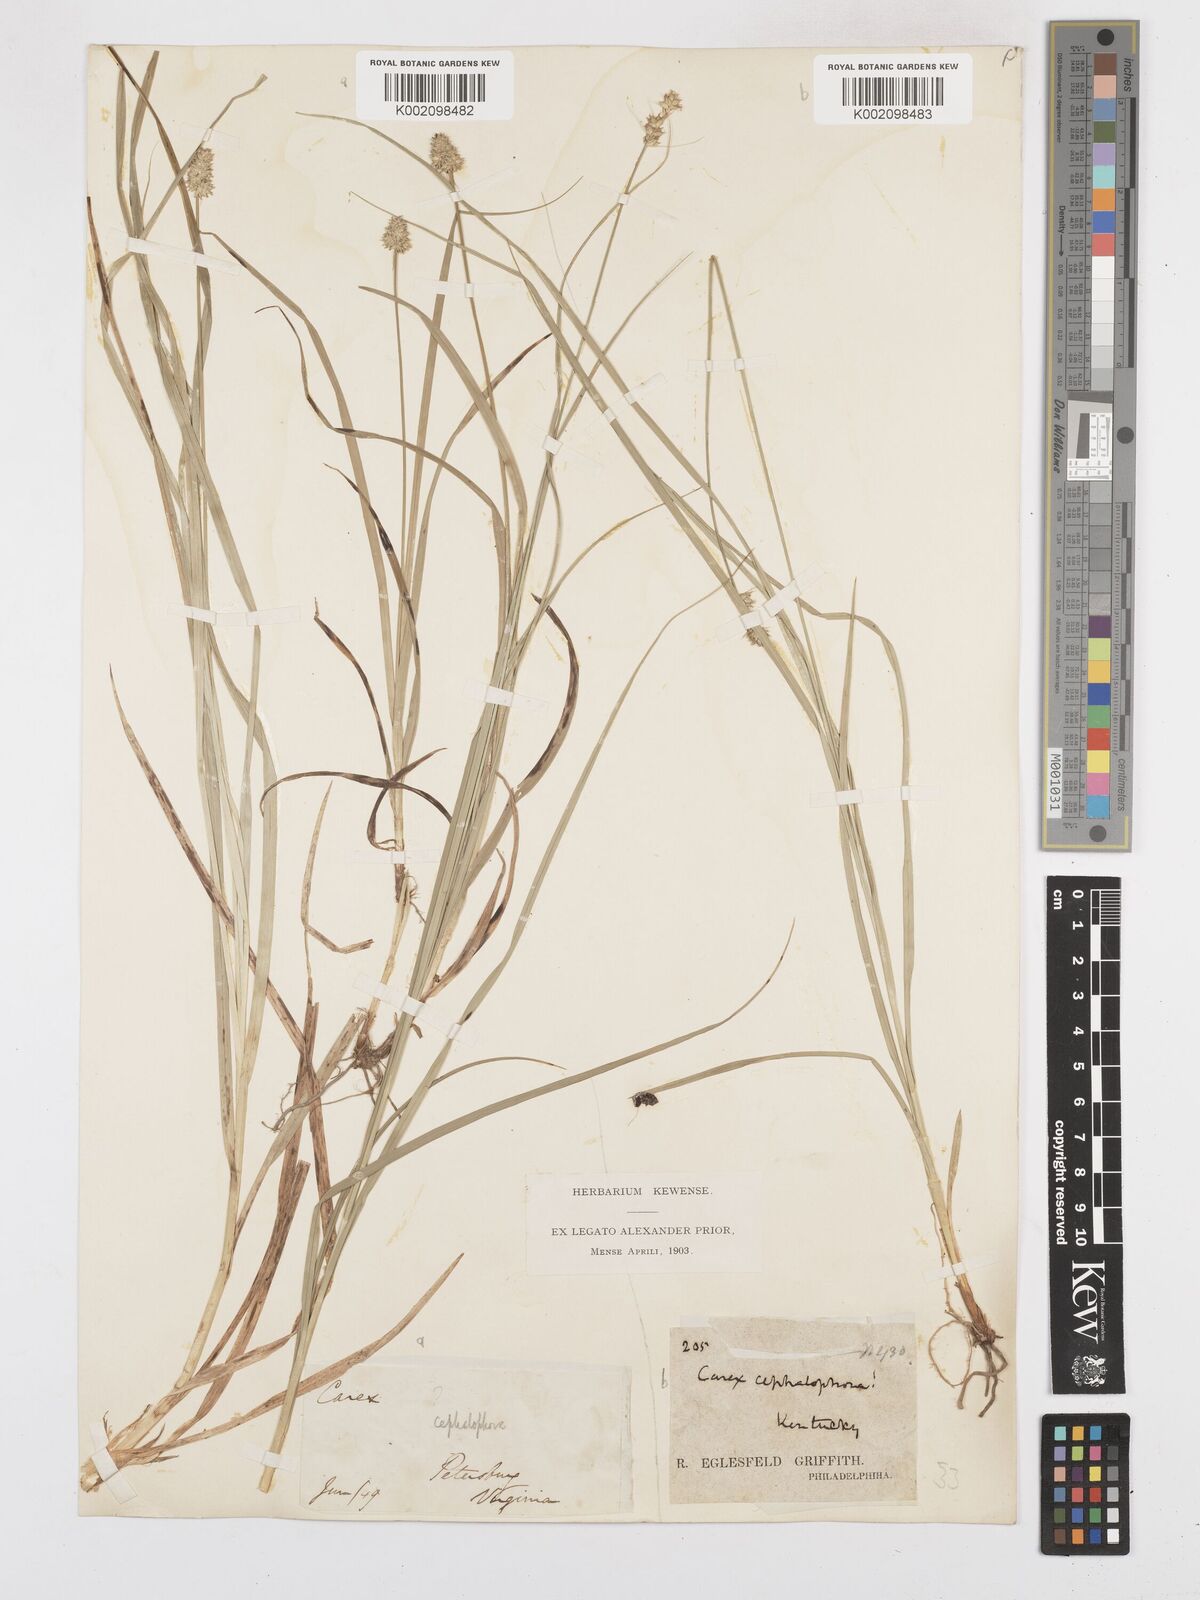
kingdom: Plantae
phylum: Tracheophyta
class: Liliopsida
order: Poales
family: Cyperaceae
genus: Carex
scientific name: Carex cephalophora
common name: Oval-headed sedge
